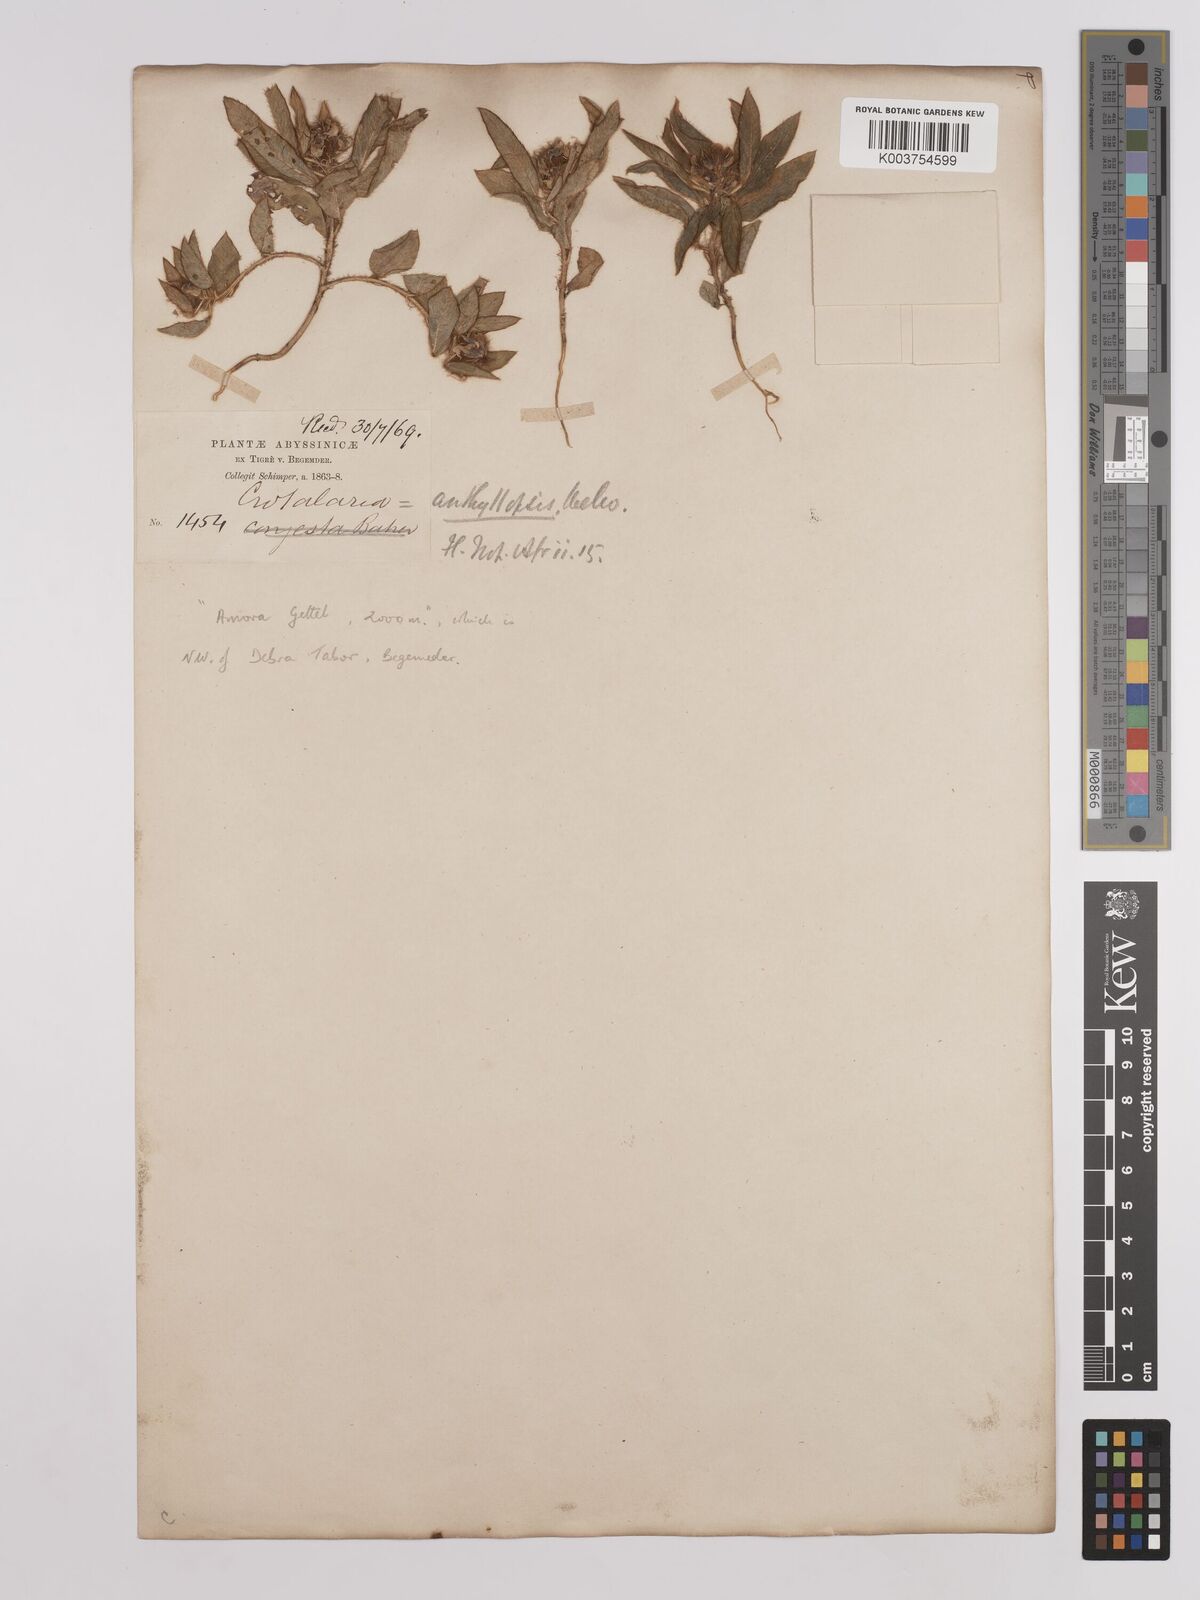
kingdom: Plantae
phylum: Tracheophyta
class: Magnoliopsida
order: Fabales
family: Fabaceae
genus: Crotalaria
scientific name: Crotalaria anthyllopsis
